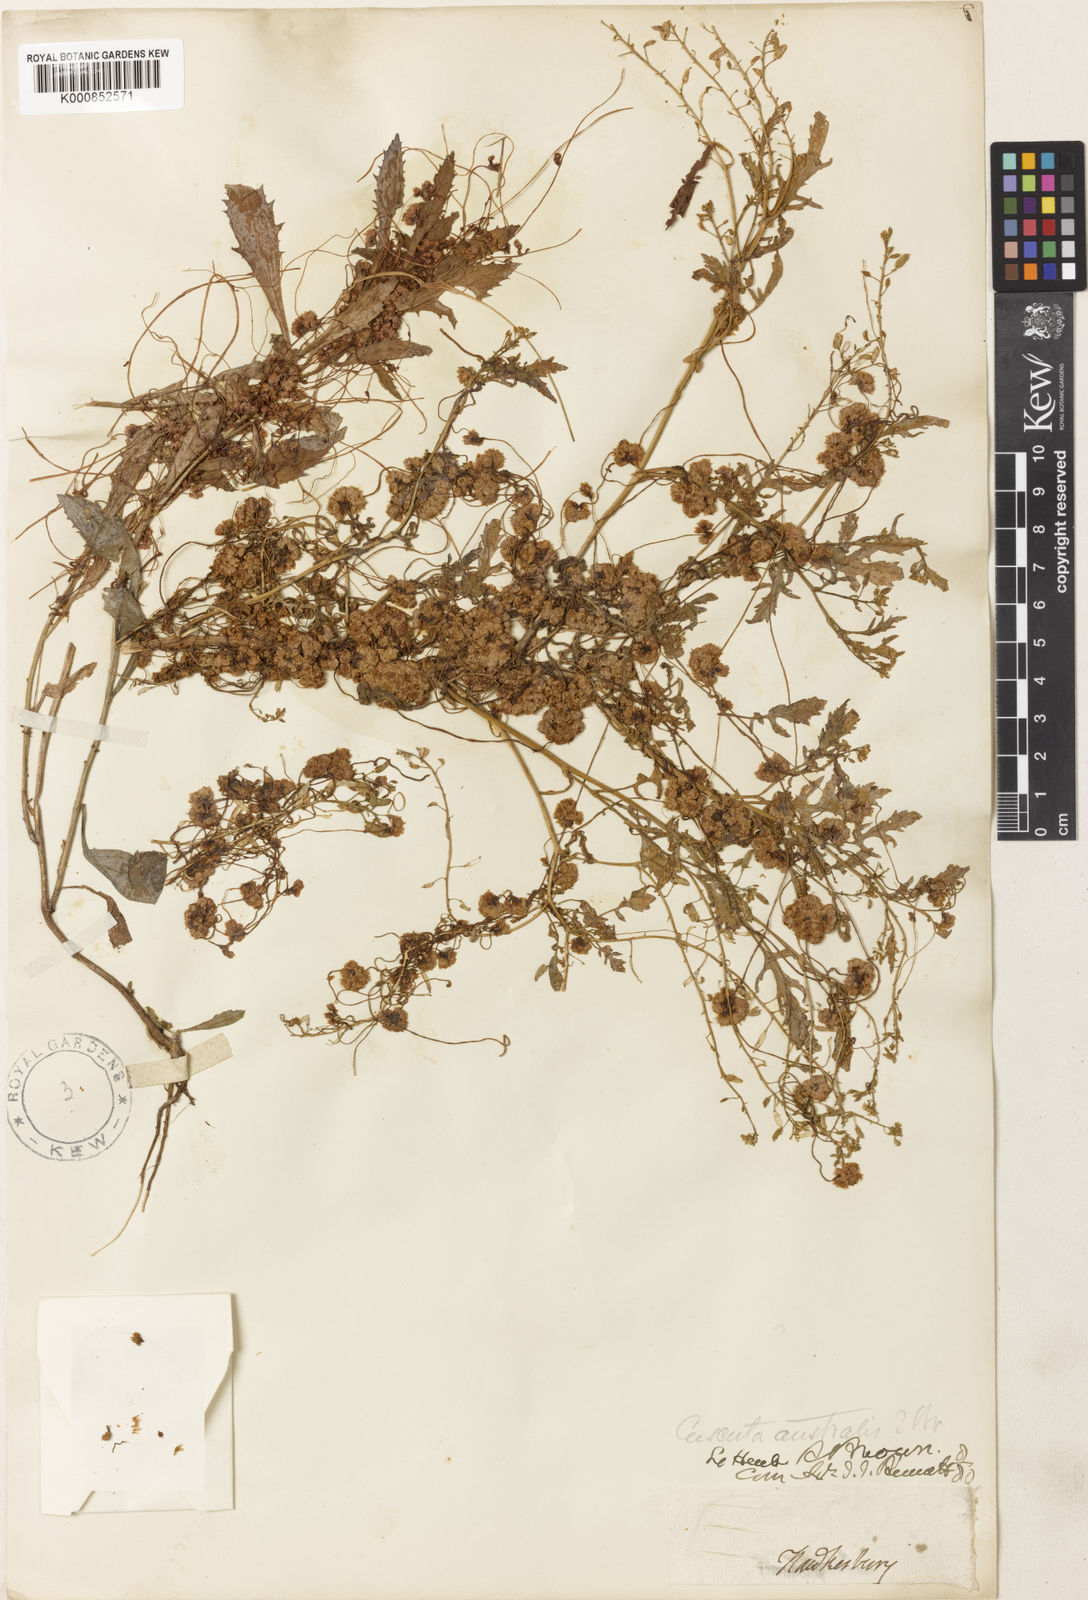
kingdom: Plantae
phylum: Tracheophyta
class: Magnoliopsida
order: Solanales
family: Convolvulaceae
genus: Cuscuta
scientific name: Cuscuta australis
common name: Australian dodder
